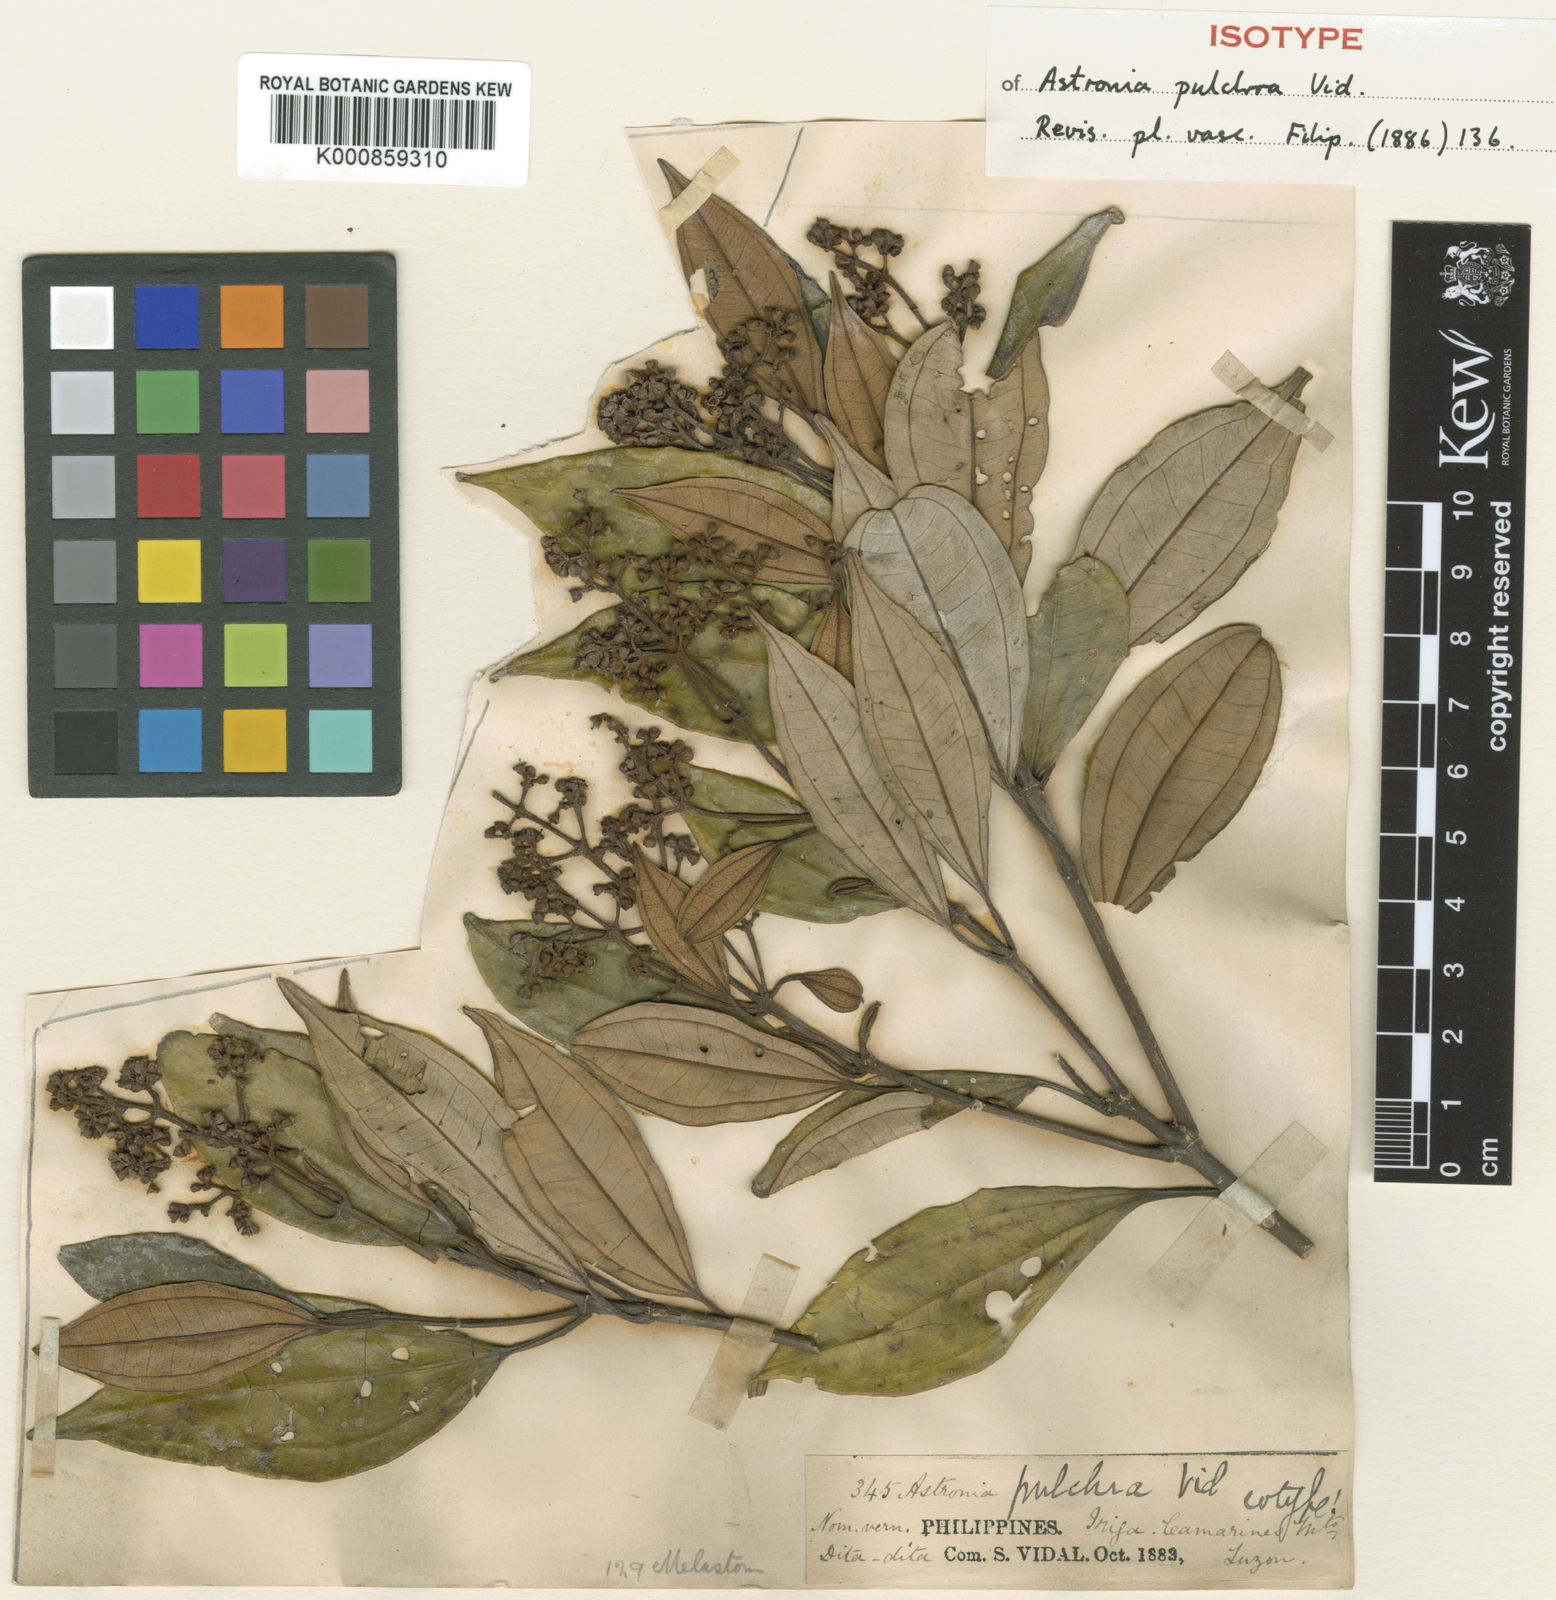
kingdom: Plantae
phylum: Tracheophyta
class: Magnoliopsida
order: Myrtales
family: Melastomataceae
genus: Astronia
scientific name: Astronia pulchra
